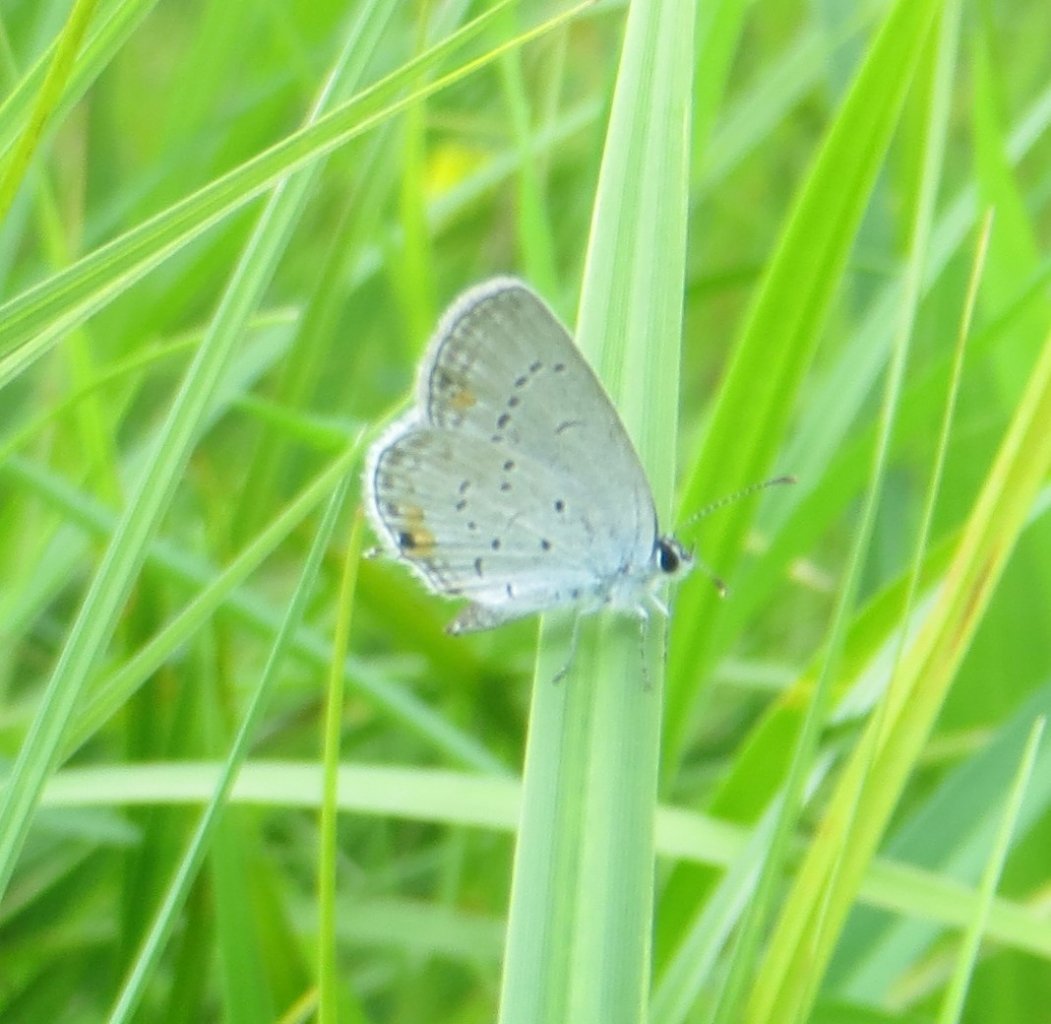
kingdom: Animalia
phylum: Arthropoda
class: Insecta
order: Lepidoptera
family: Lycaenidae
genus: Elkalyce
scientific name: Elkalyce comyntas
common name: Eastern Tailed-Blue
